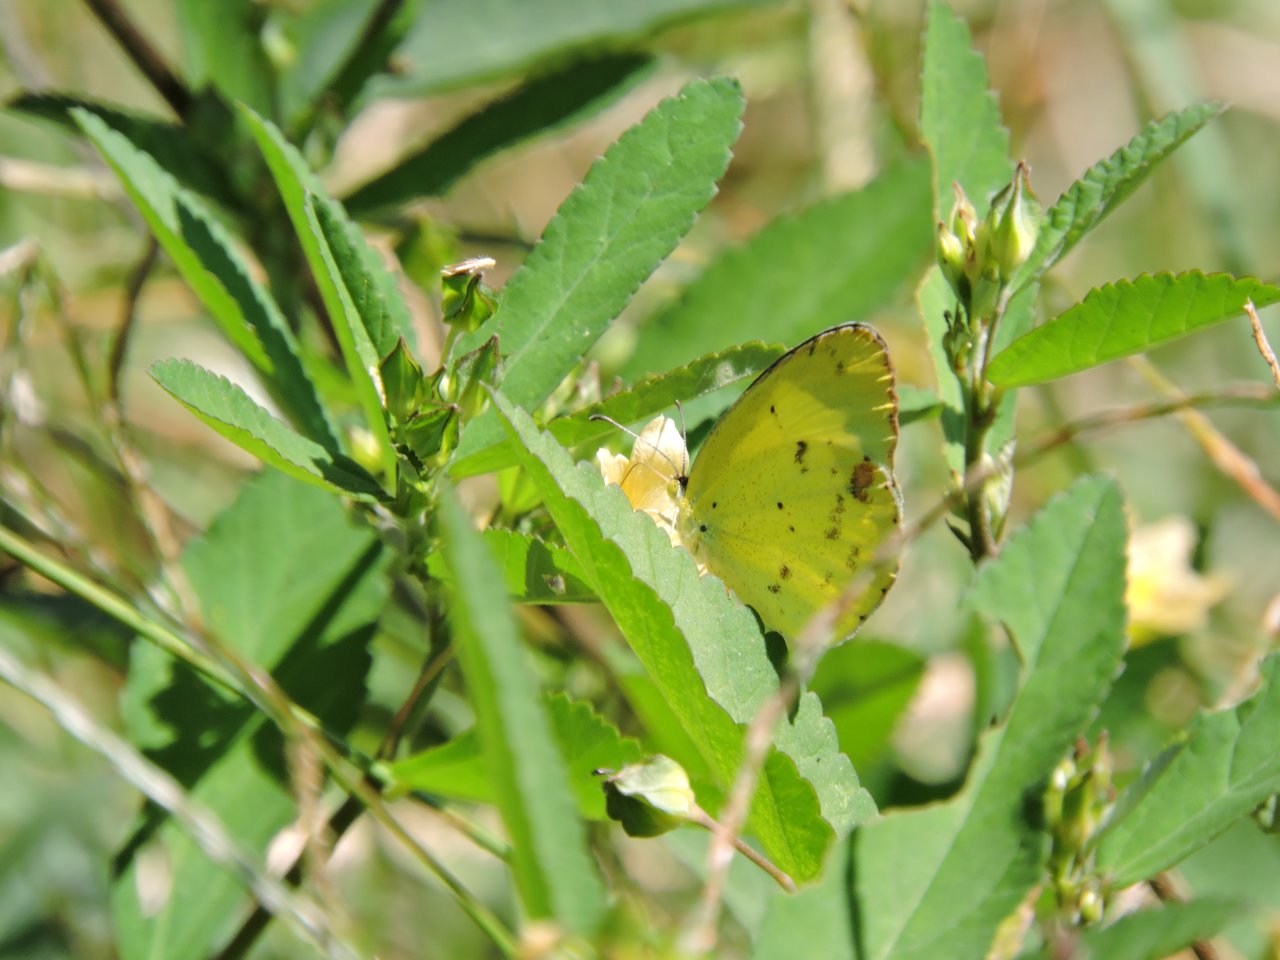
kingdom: Animalia
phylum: Arthropoda
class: Insecta
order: Lepidoptera
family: Pieridae
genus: Pyrisitia
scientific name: Pyrisitia lisa
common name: Little Yellow
